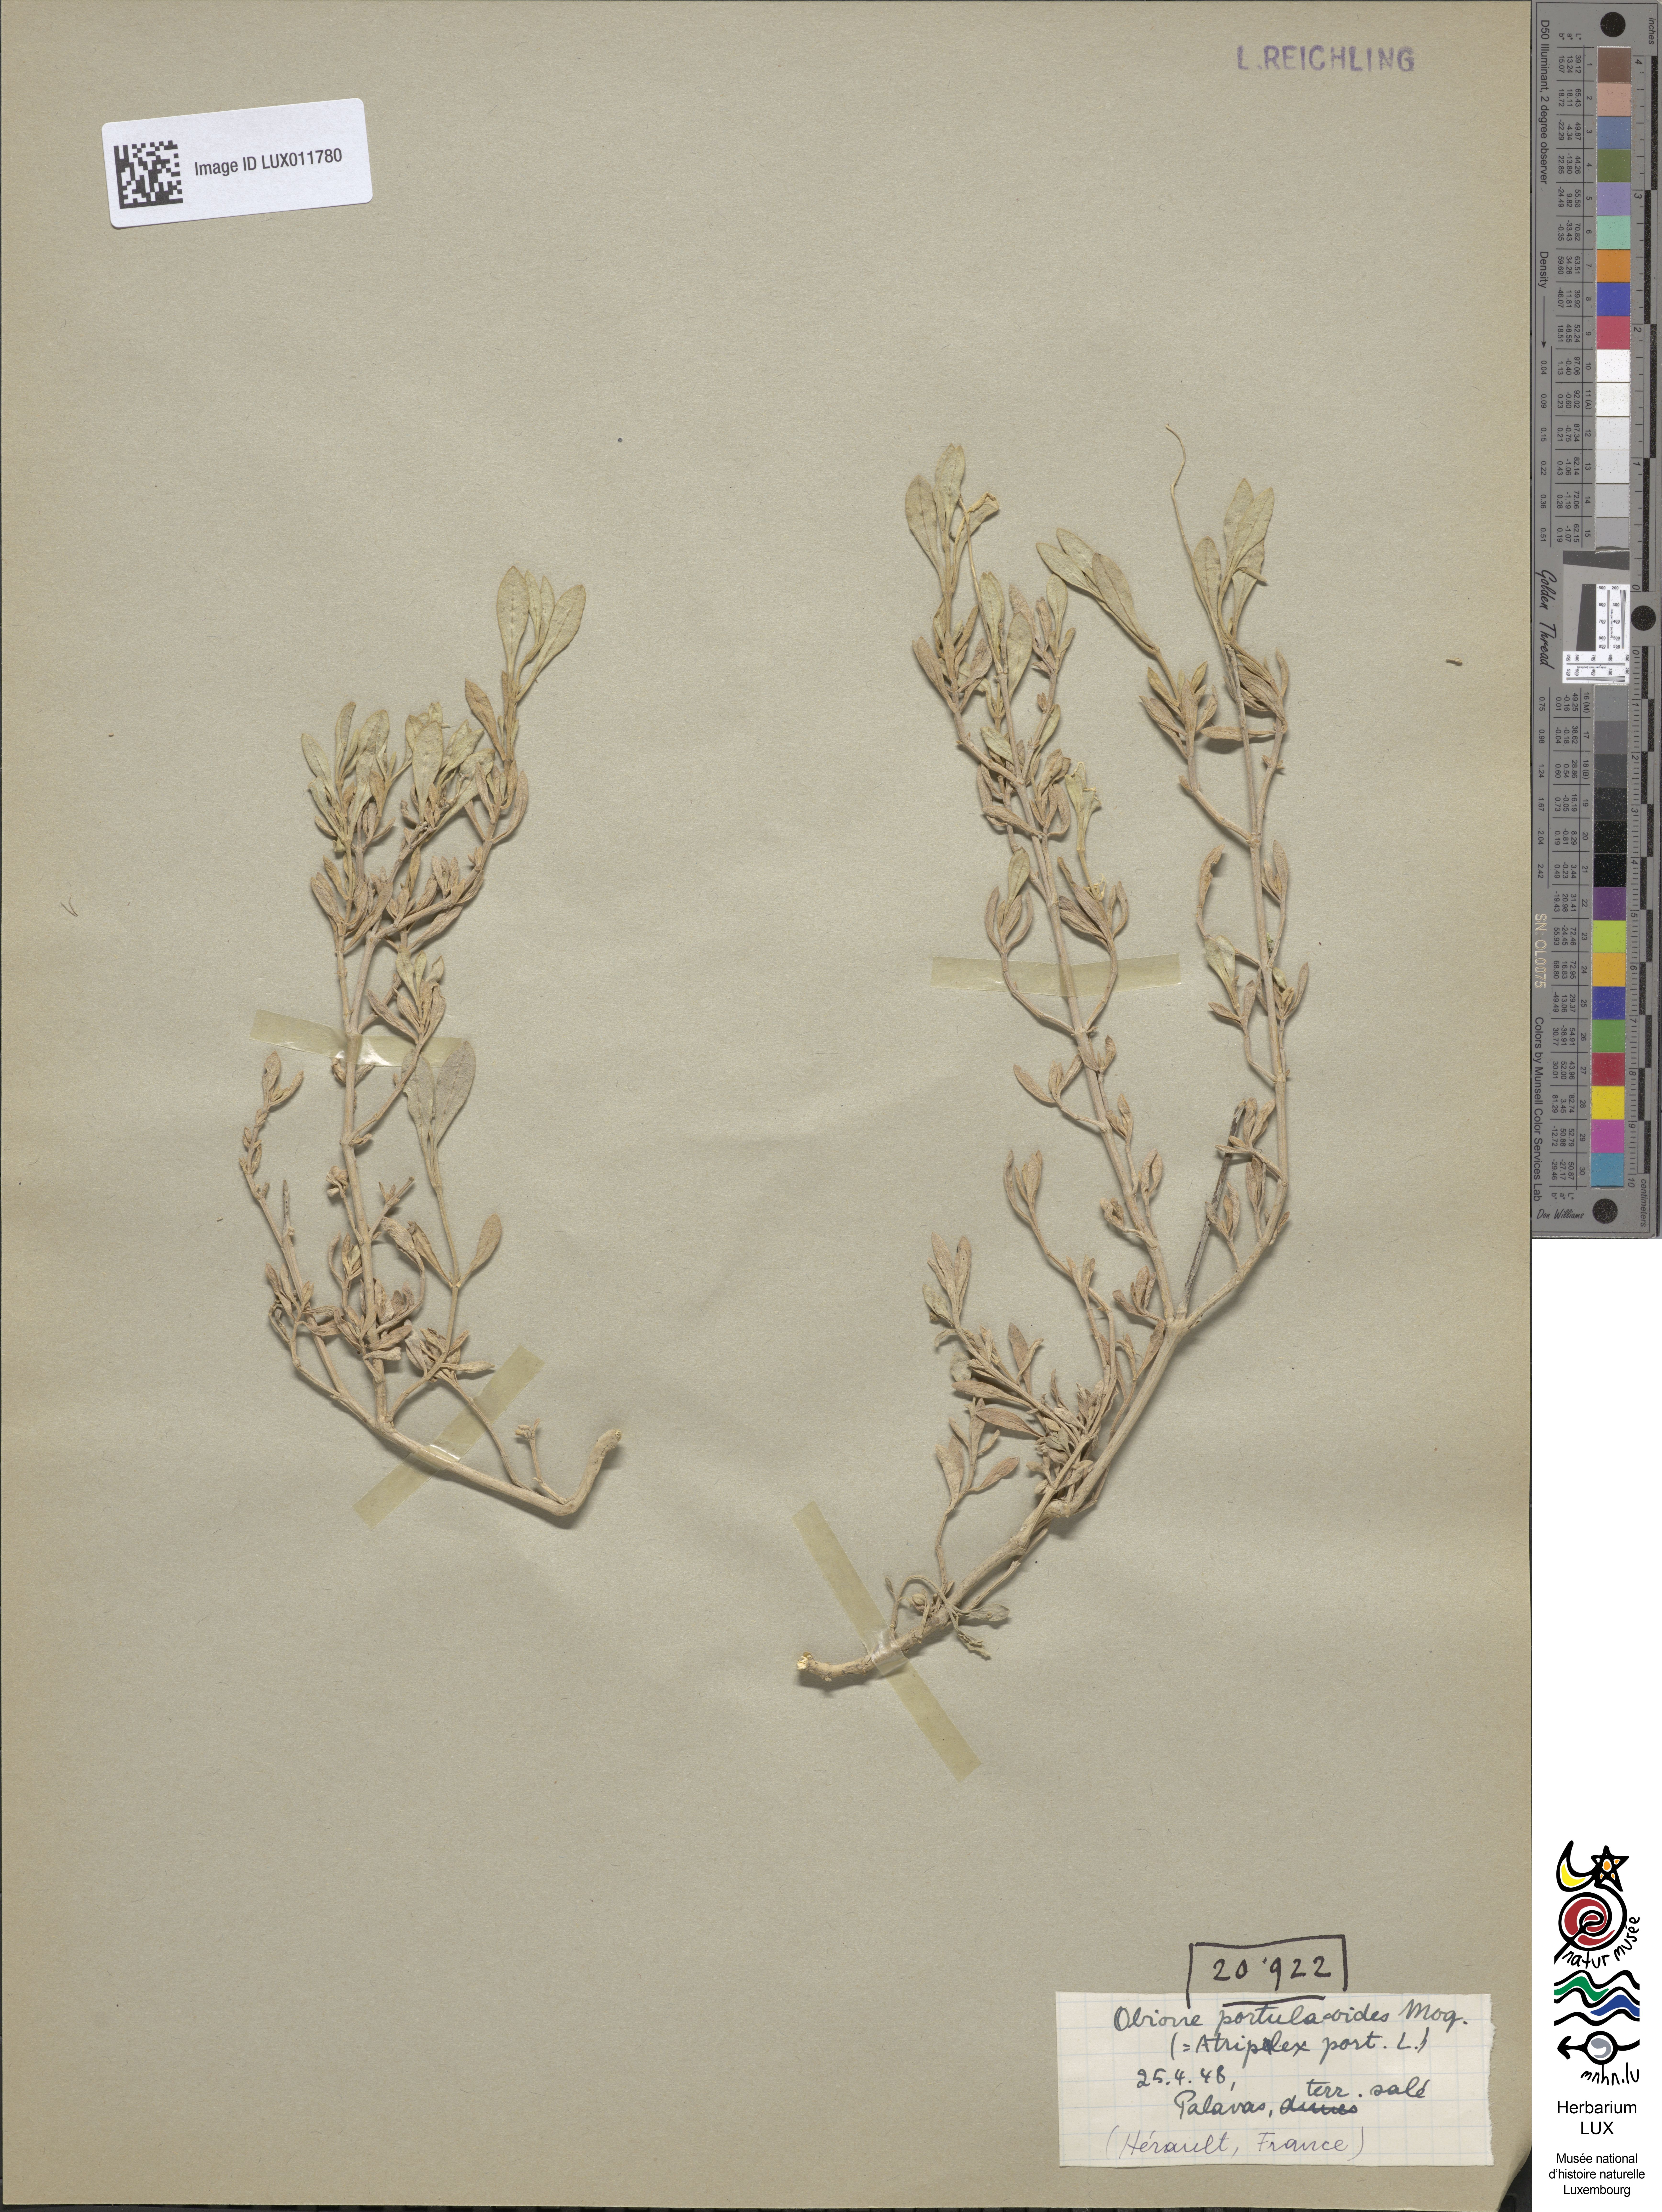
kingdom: Plantae
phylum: Tracheophyta
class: Magnoliopsida
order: Caryophyllales
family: Amaranthaceae
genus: Halimione
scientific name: Halimione portulacoides
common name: Sea-purslane
